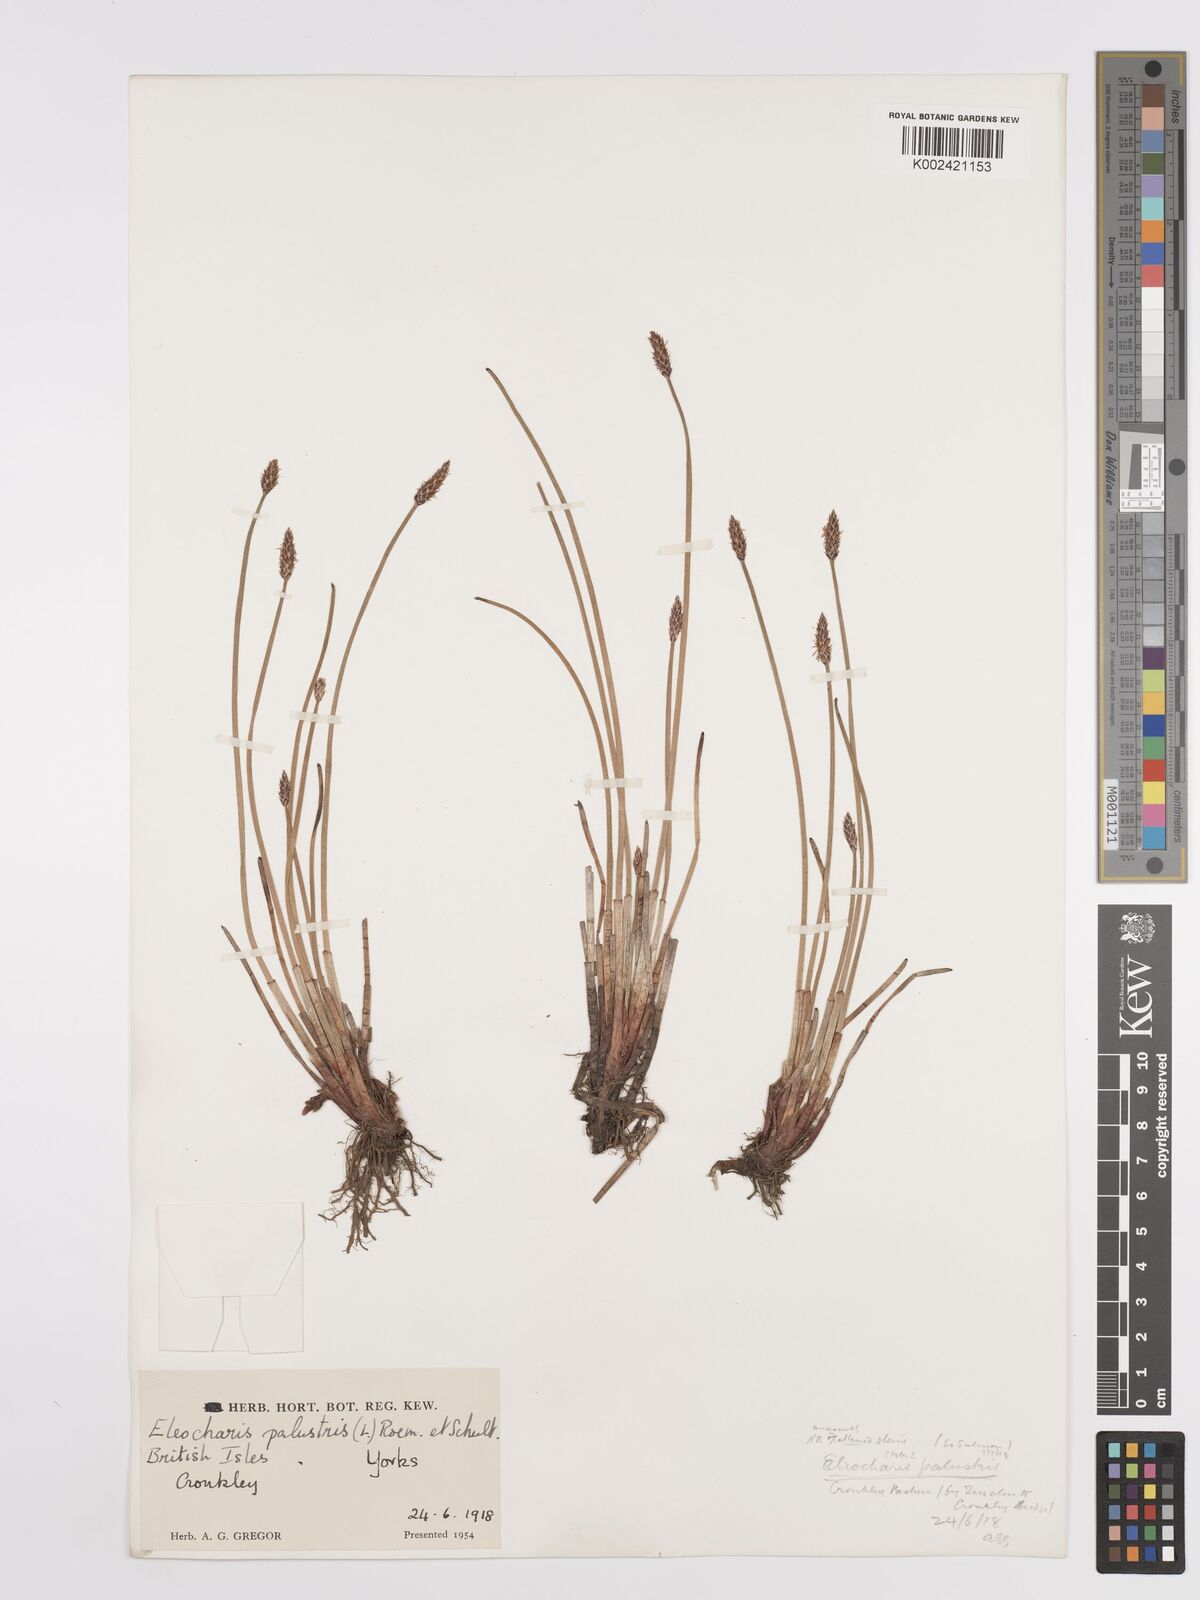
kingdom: Plantae
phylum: Tracheophyta
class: Liliopsida
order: Poales
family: Cyperaceae
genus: Eleocharis
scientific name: Eleocharis palustris
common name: Common spike-rush
